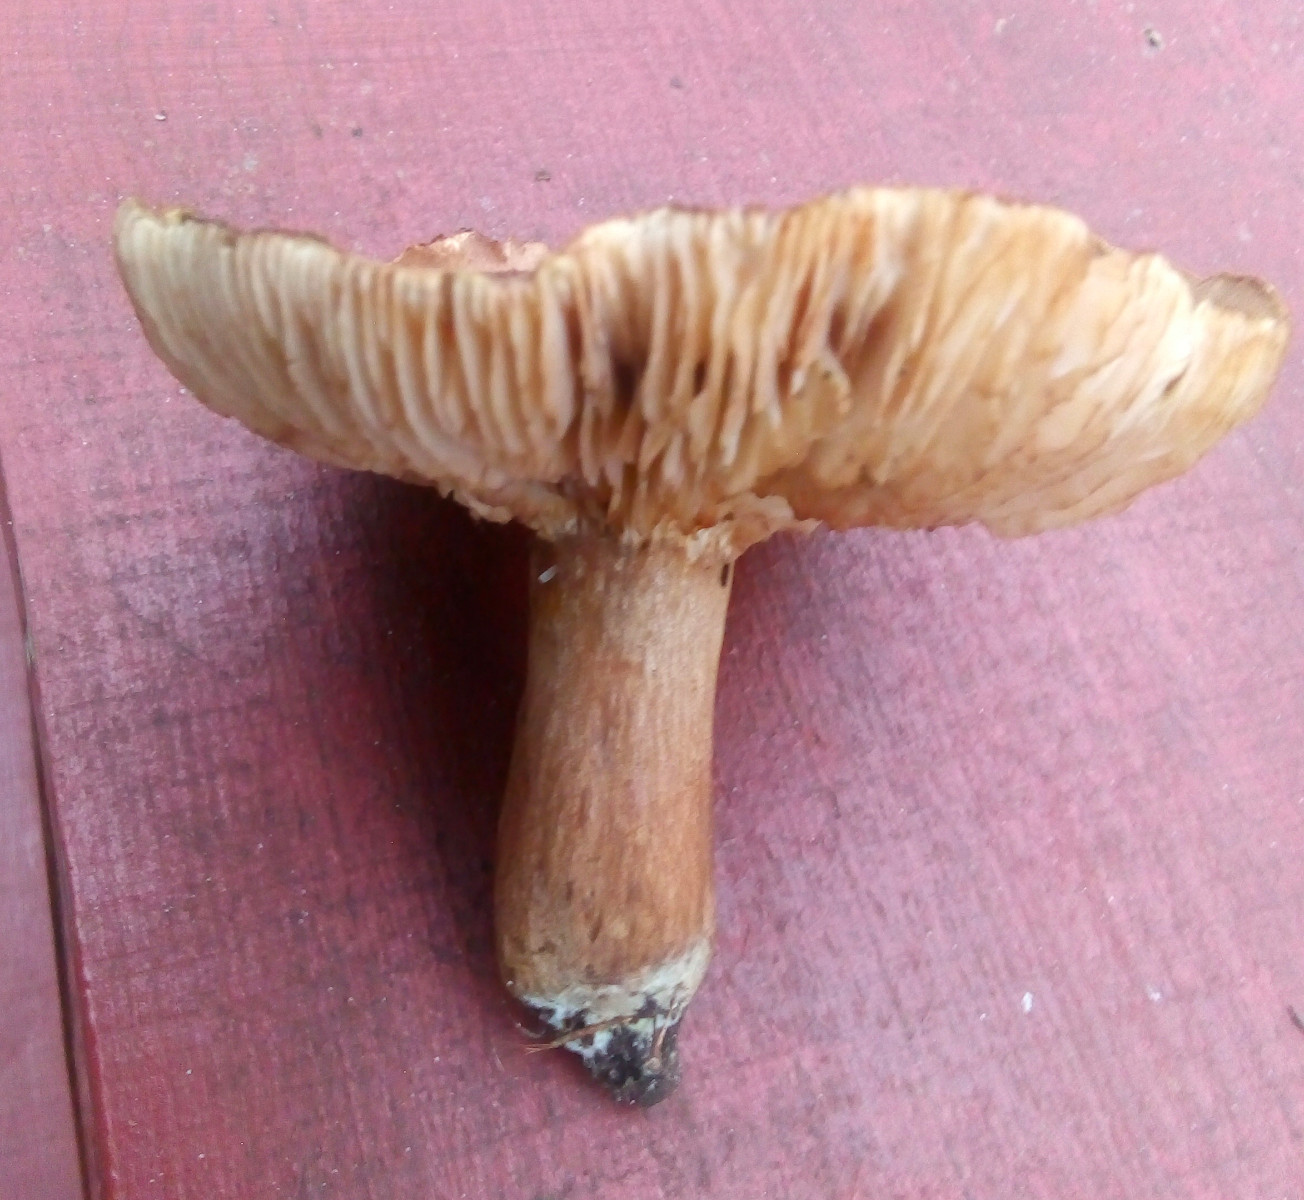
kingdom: Fungi
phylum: Basidiomycota
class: Agaricomycetes
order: Agaricales
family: Tricholomataceae
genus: Tricholoma
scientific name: Tricholoma imbricatum
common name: skællet ridderhat
